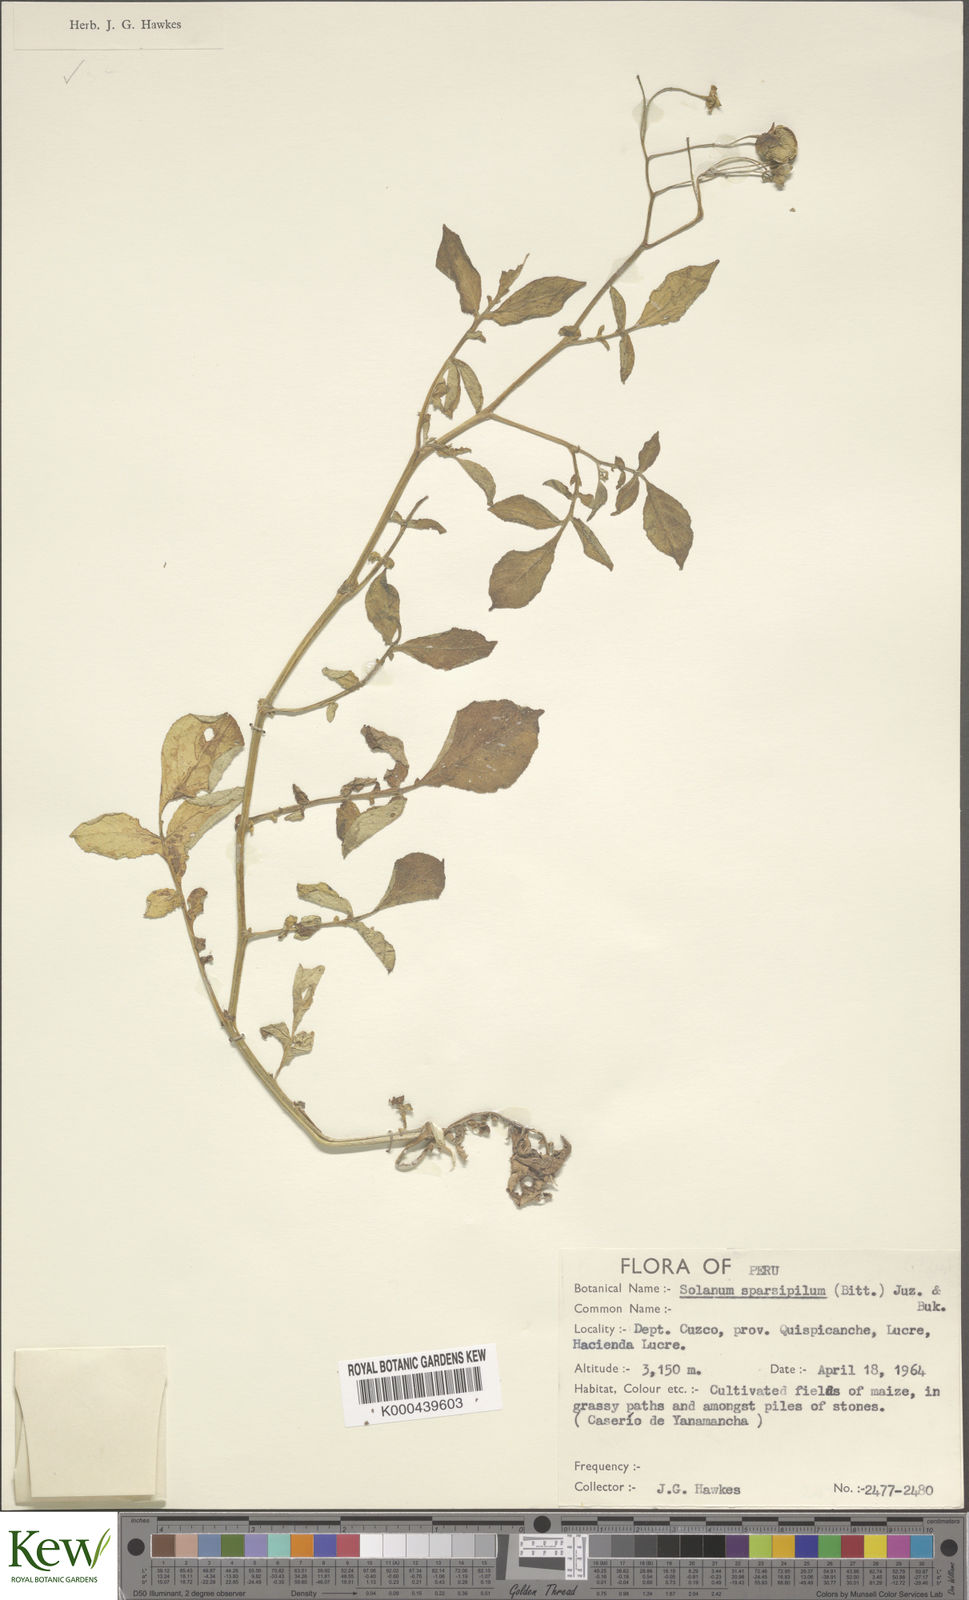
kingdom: Plantae
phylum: Tracheophyta
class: Magnoliopsida
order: Solanales
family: Solanaceae
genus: Solanum
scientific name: Solanum brevicaule
